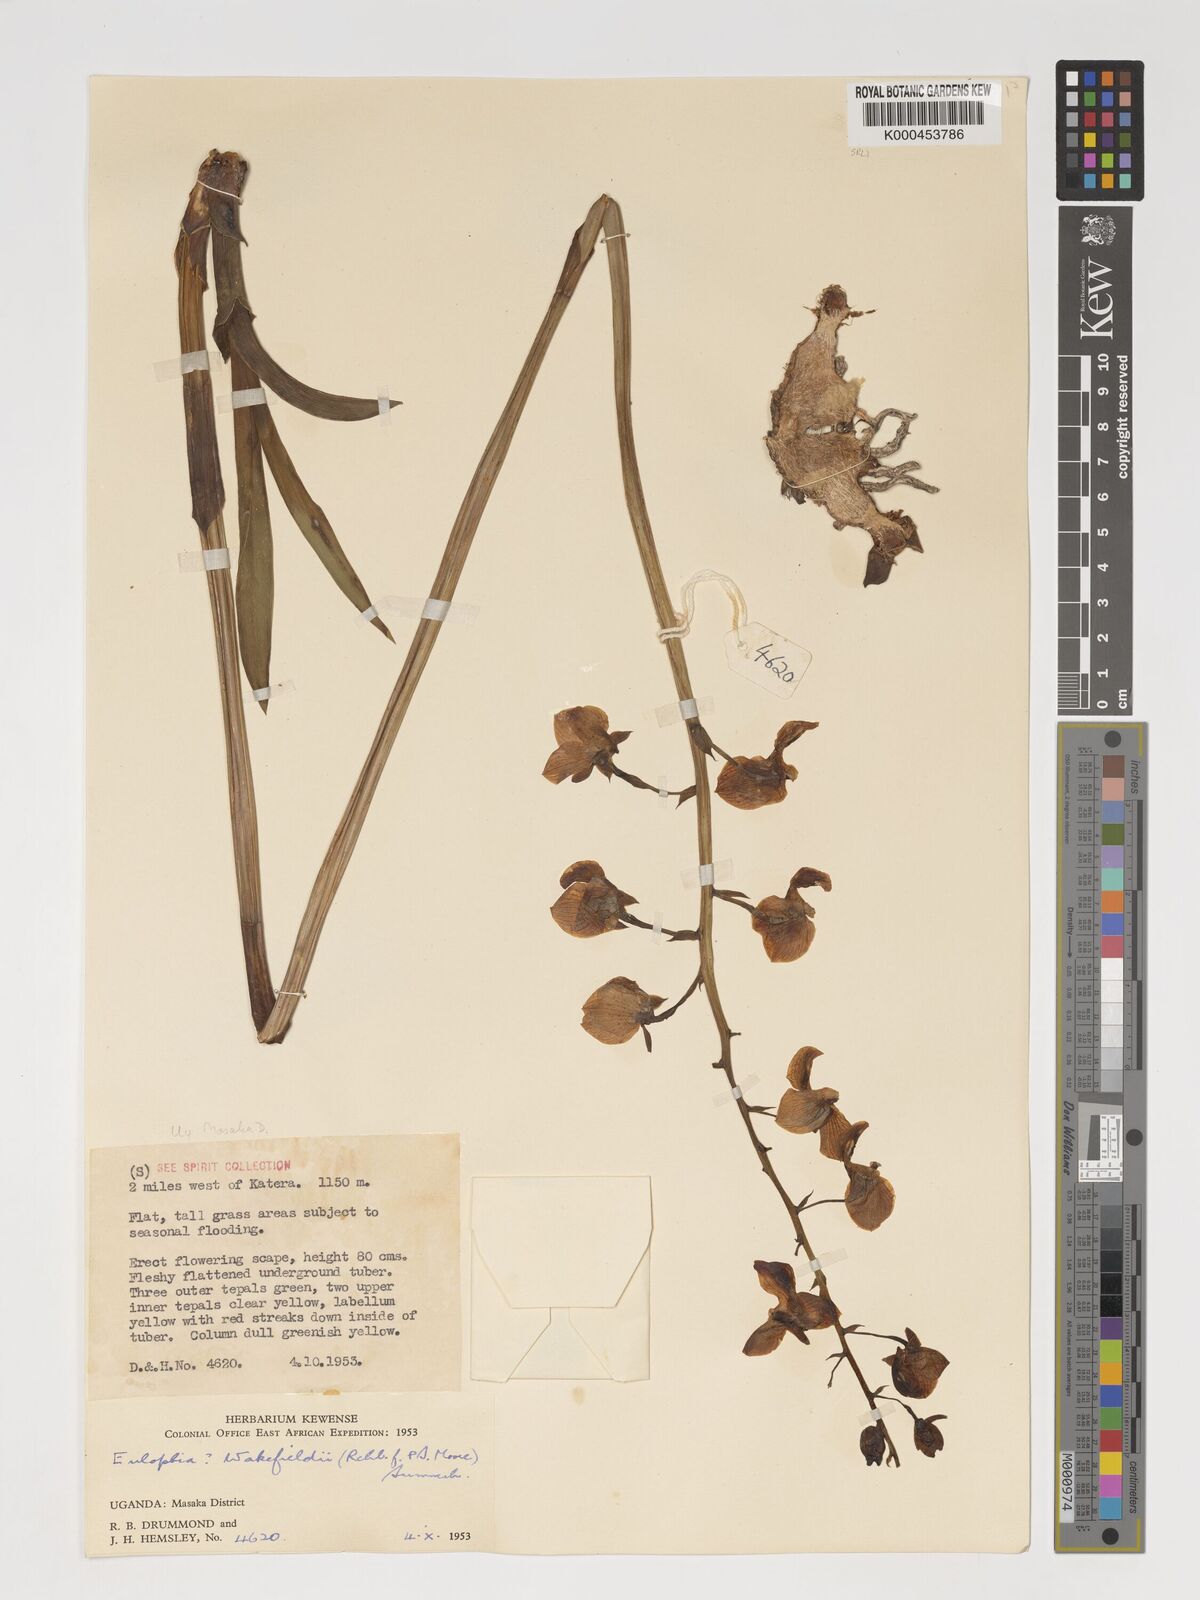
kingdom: Plantae
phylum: Tracheophyta
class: Liliopsida
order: Asparagales
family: Orchidaceae
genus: Eulophia
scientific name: Eulophia speciosa
